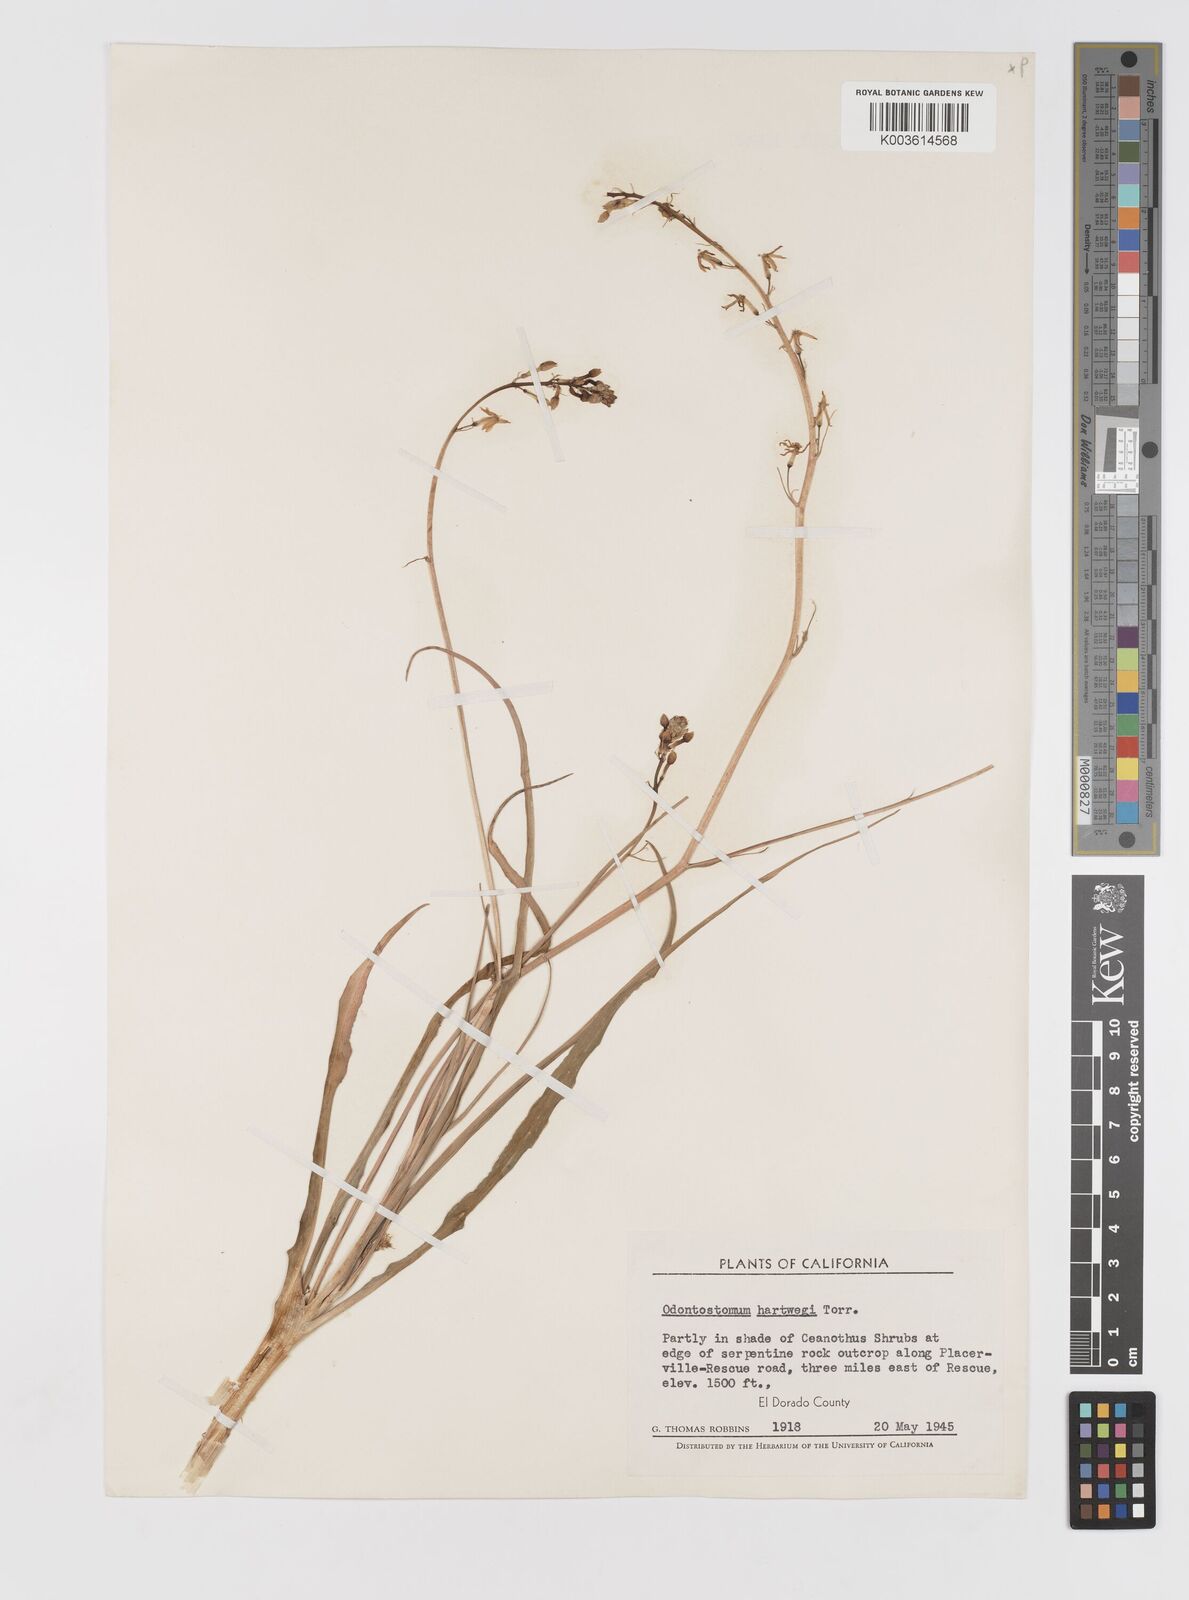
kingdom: Plantae
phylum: Tracheophyta
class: Liliopsida
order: Asparagales
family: Tecophilaeaceae
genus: Odontostomum
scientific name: Odontostomum hartwegii
